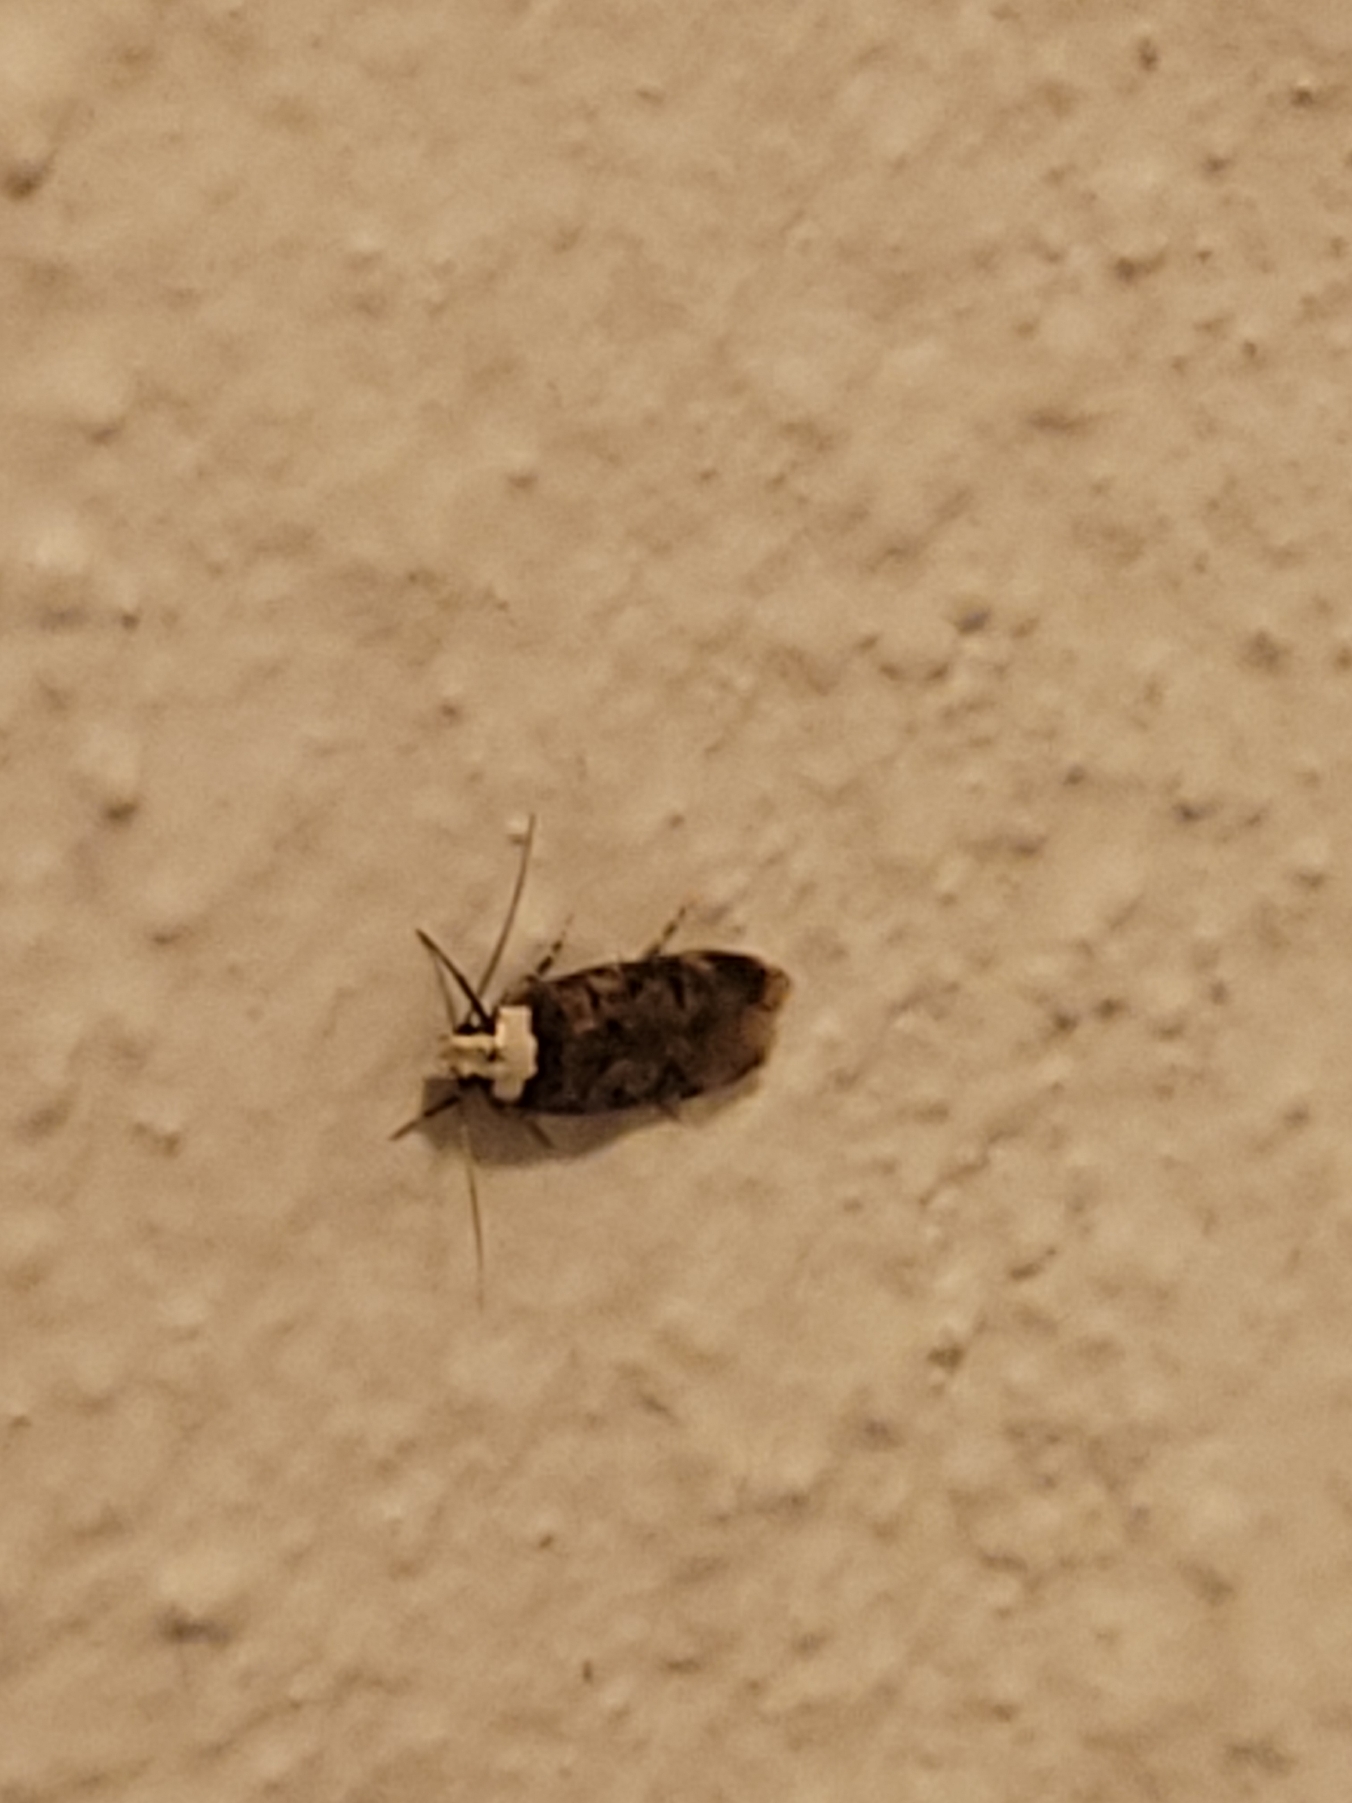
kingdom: Animalia
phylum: Arthropoda
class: Insecta
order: Lepidoptera
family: Oecophoridae
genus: Endrosis
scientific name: Endrosis sarcitrella
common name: Klistermøl
